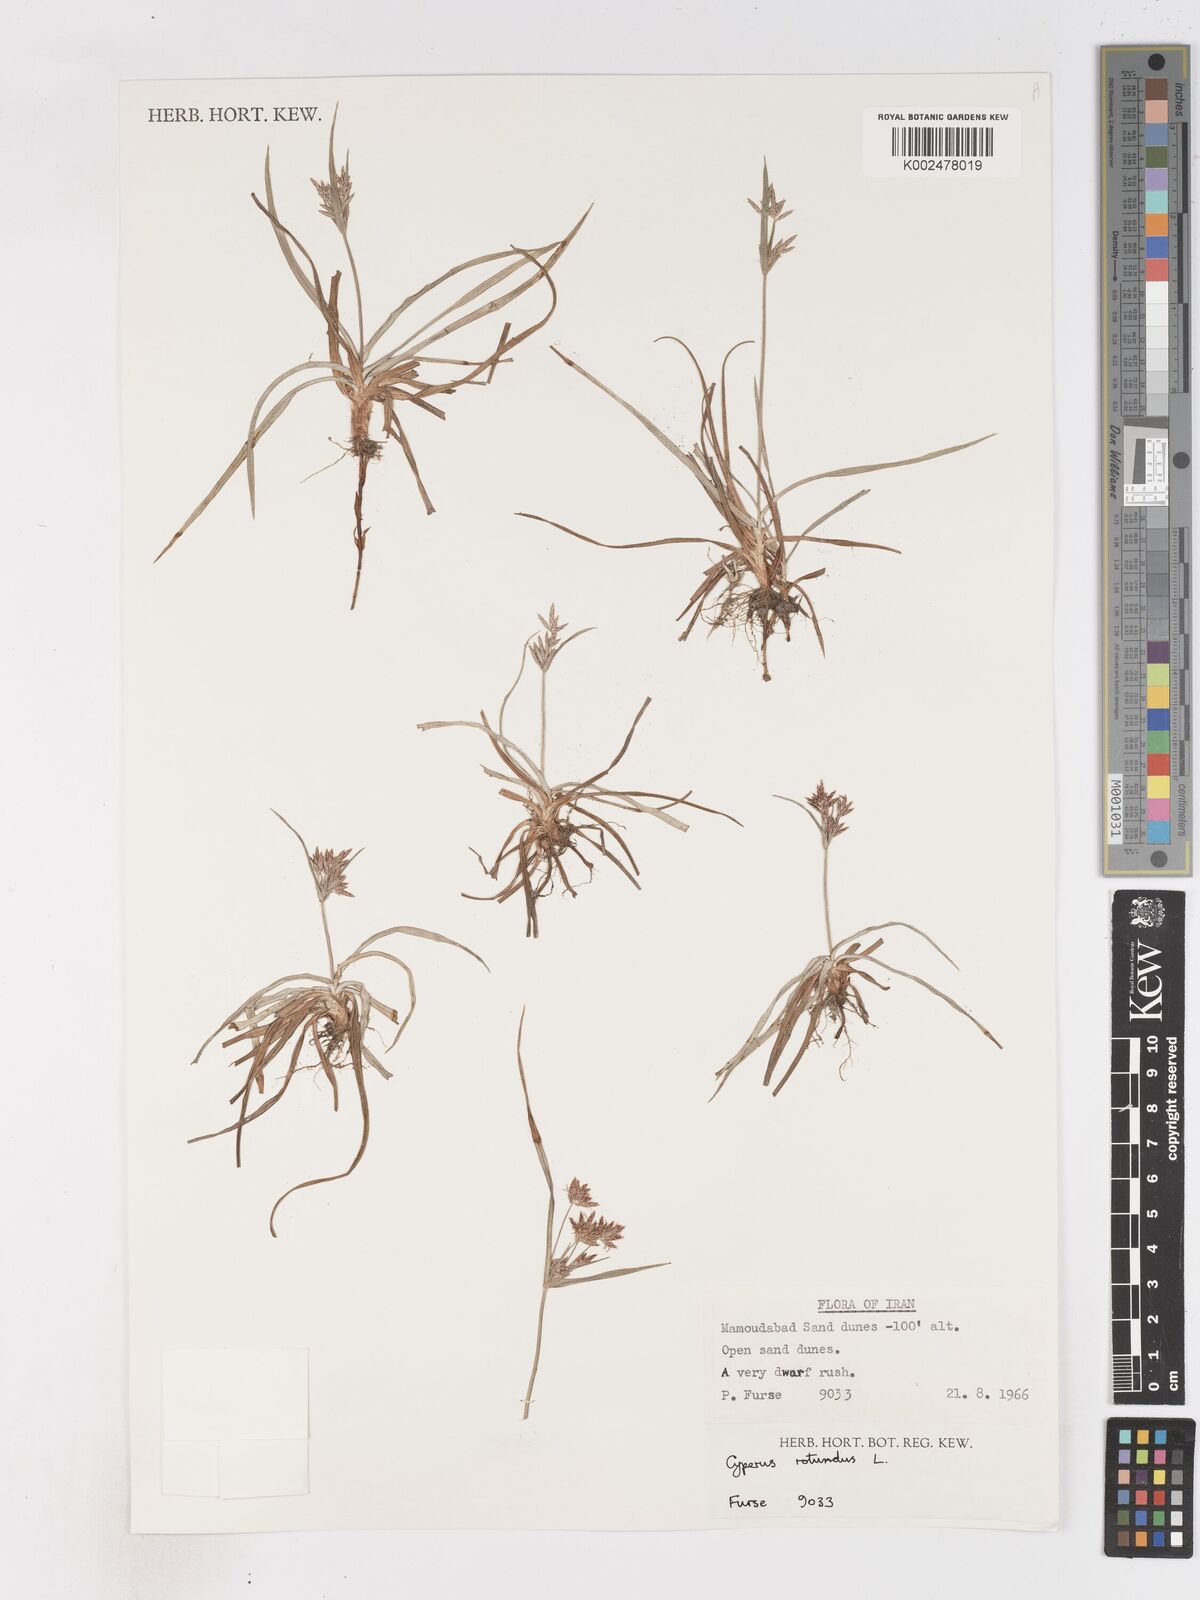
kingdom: Plantae
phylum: Tracheophyta
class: Liliopsida
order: Poales
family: Cyperaceae
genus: Cyperus
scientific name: Cyperus rotundus
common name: Nutgrass
